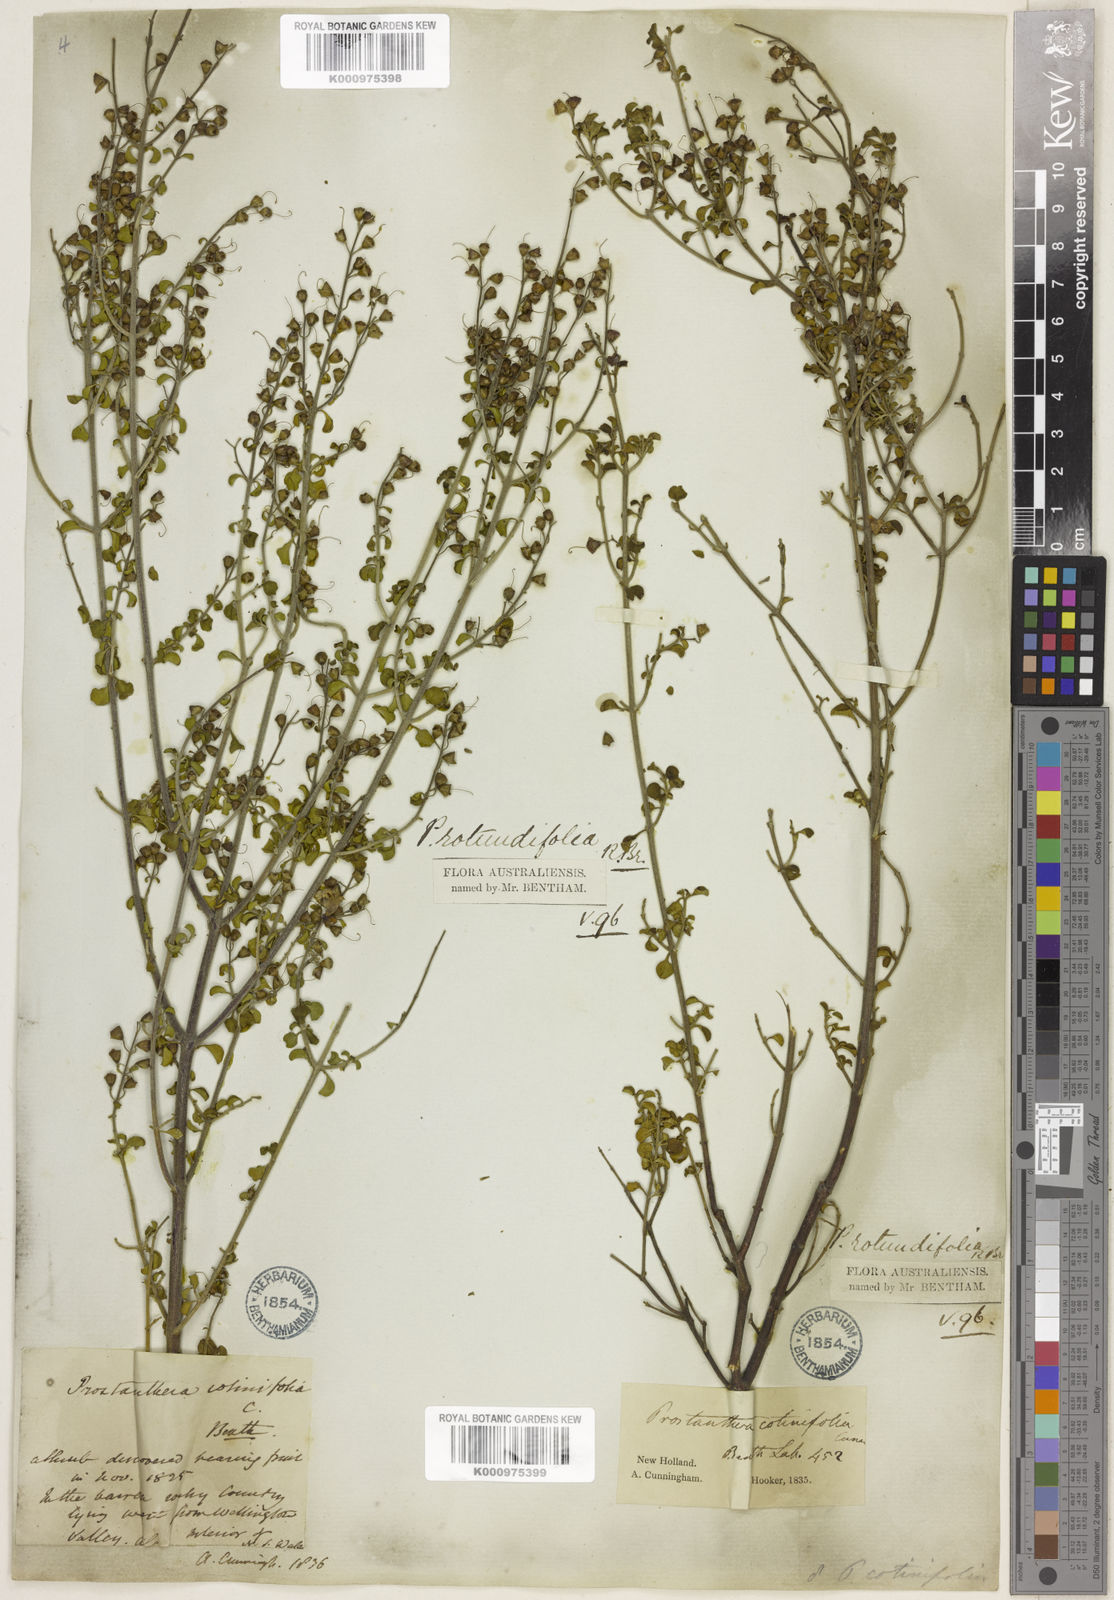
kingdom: Plantae
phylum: Tracheophyta
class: Magnoliopsida
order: Lamiales
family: Lamiaceae
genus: Prostanthera
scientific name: Prostanthera rotundifolia
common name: Round-leaf mintbush
